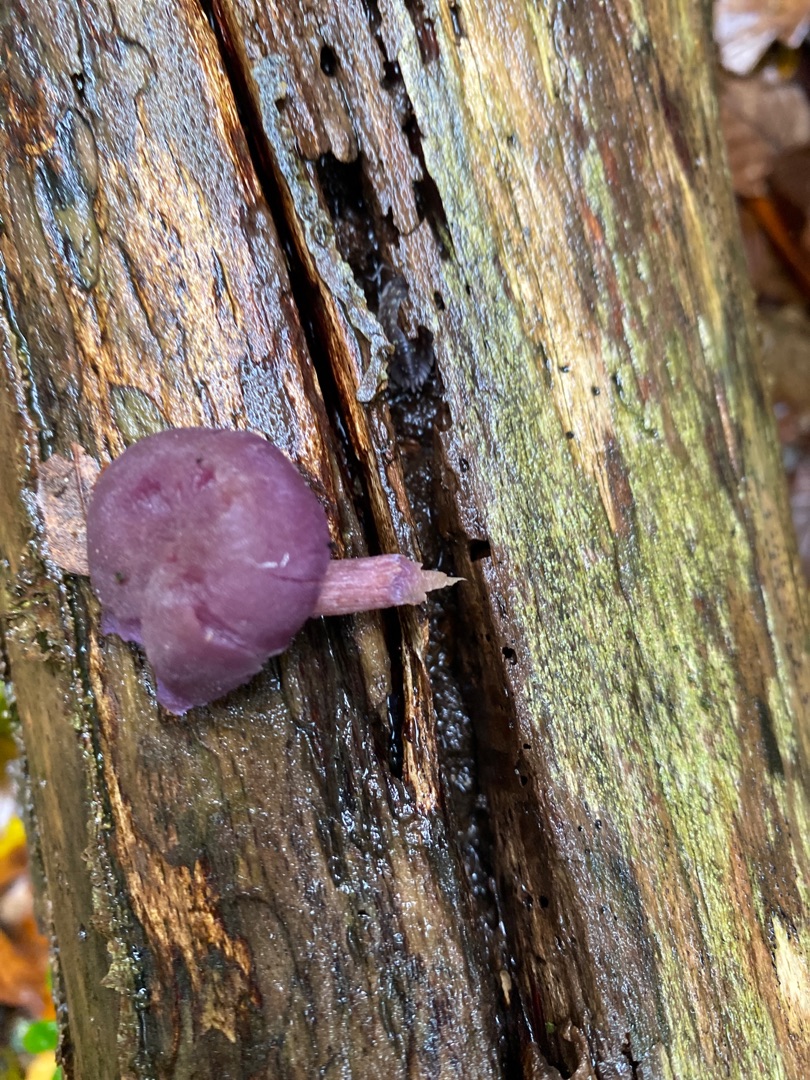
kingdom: Fungi
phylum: Basidiomycota
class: Agaricomycetes
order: Agaricales
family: Hydnangiaceae
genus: Laccaria
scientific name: Laccaria amethystina
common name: Violet ametysthat
